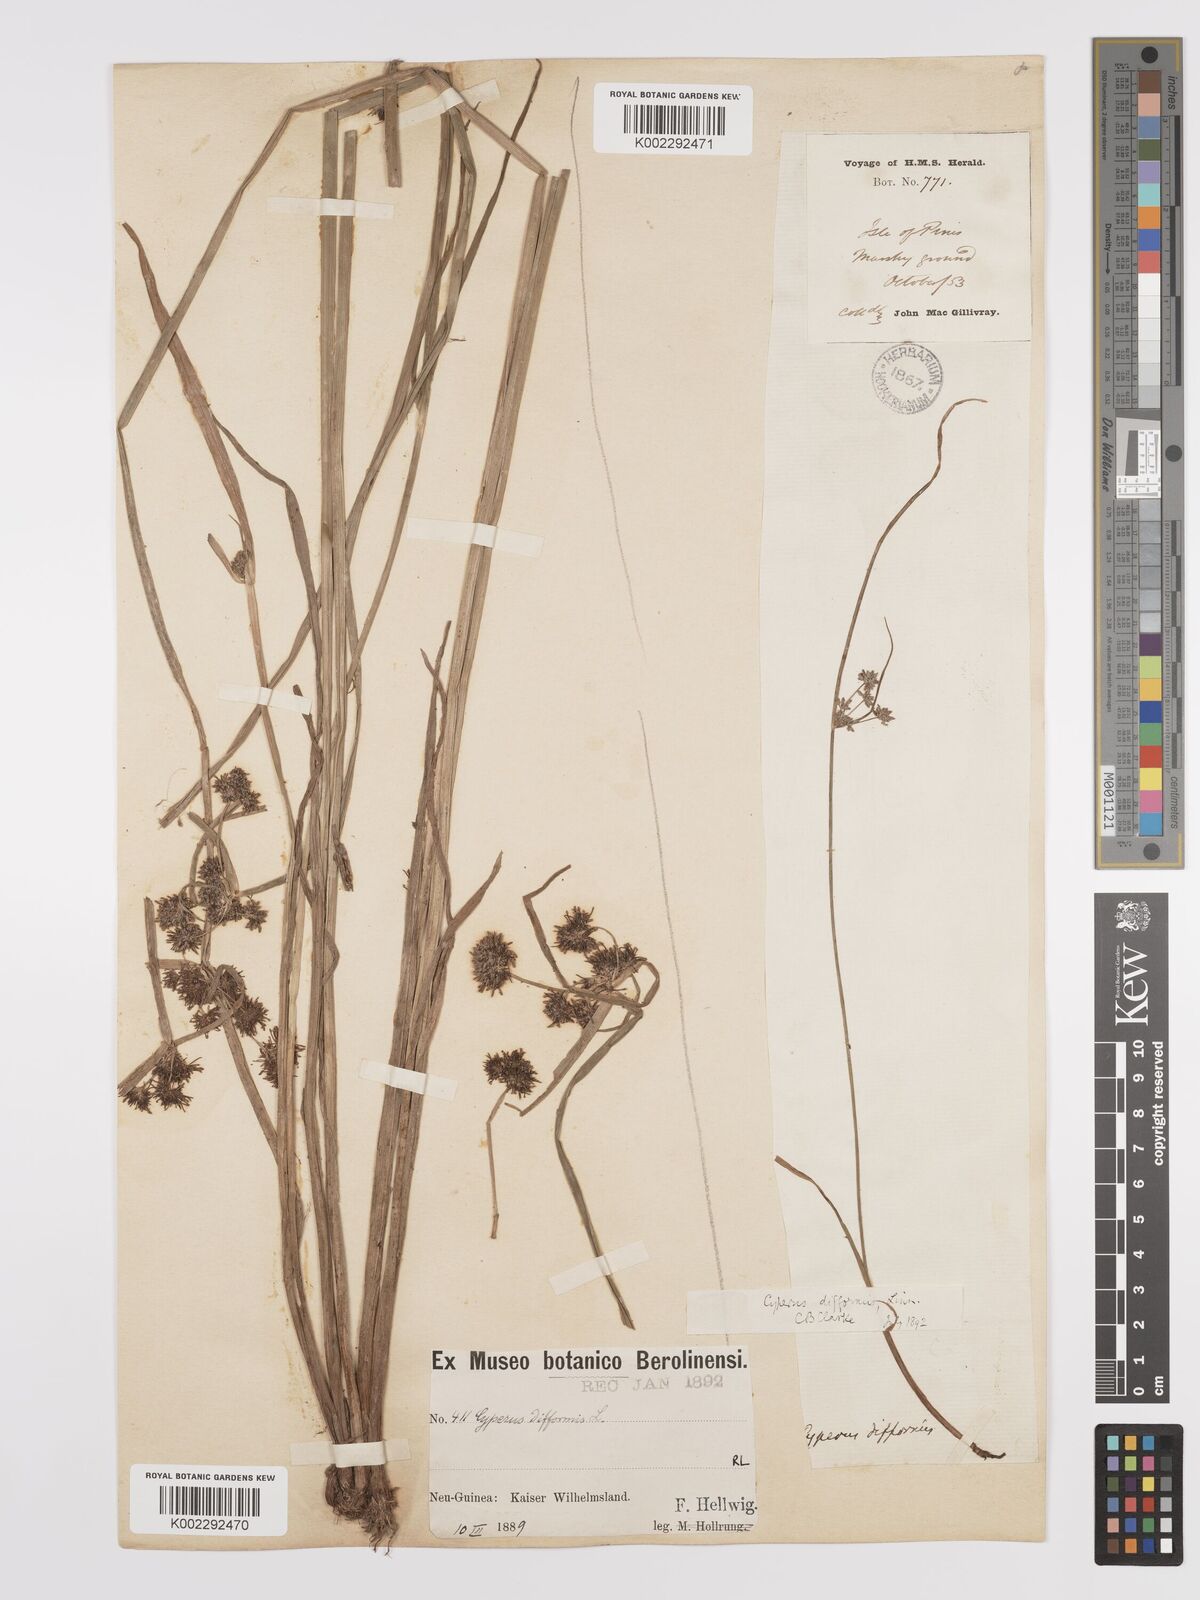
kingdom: Plantae
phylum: Tracheophyta
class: Liliopsida
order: Poales
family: Cyperaceae
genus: Cyperus
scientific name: Cyperus difformis
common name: Variable flatsedge
